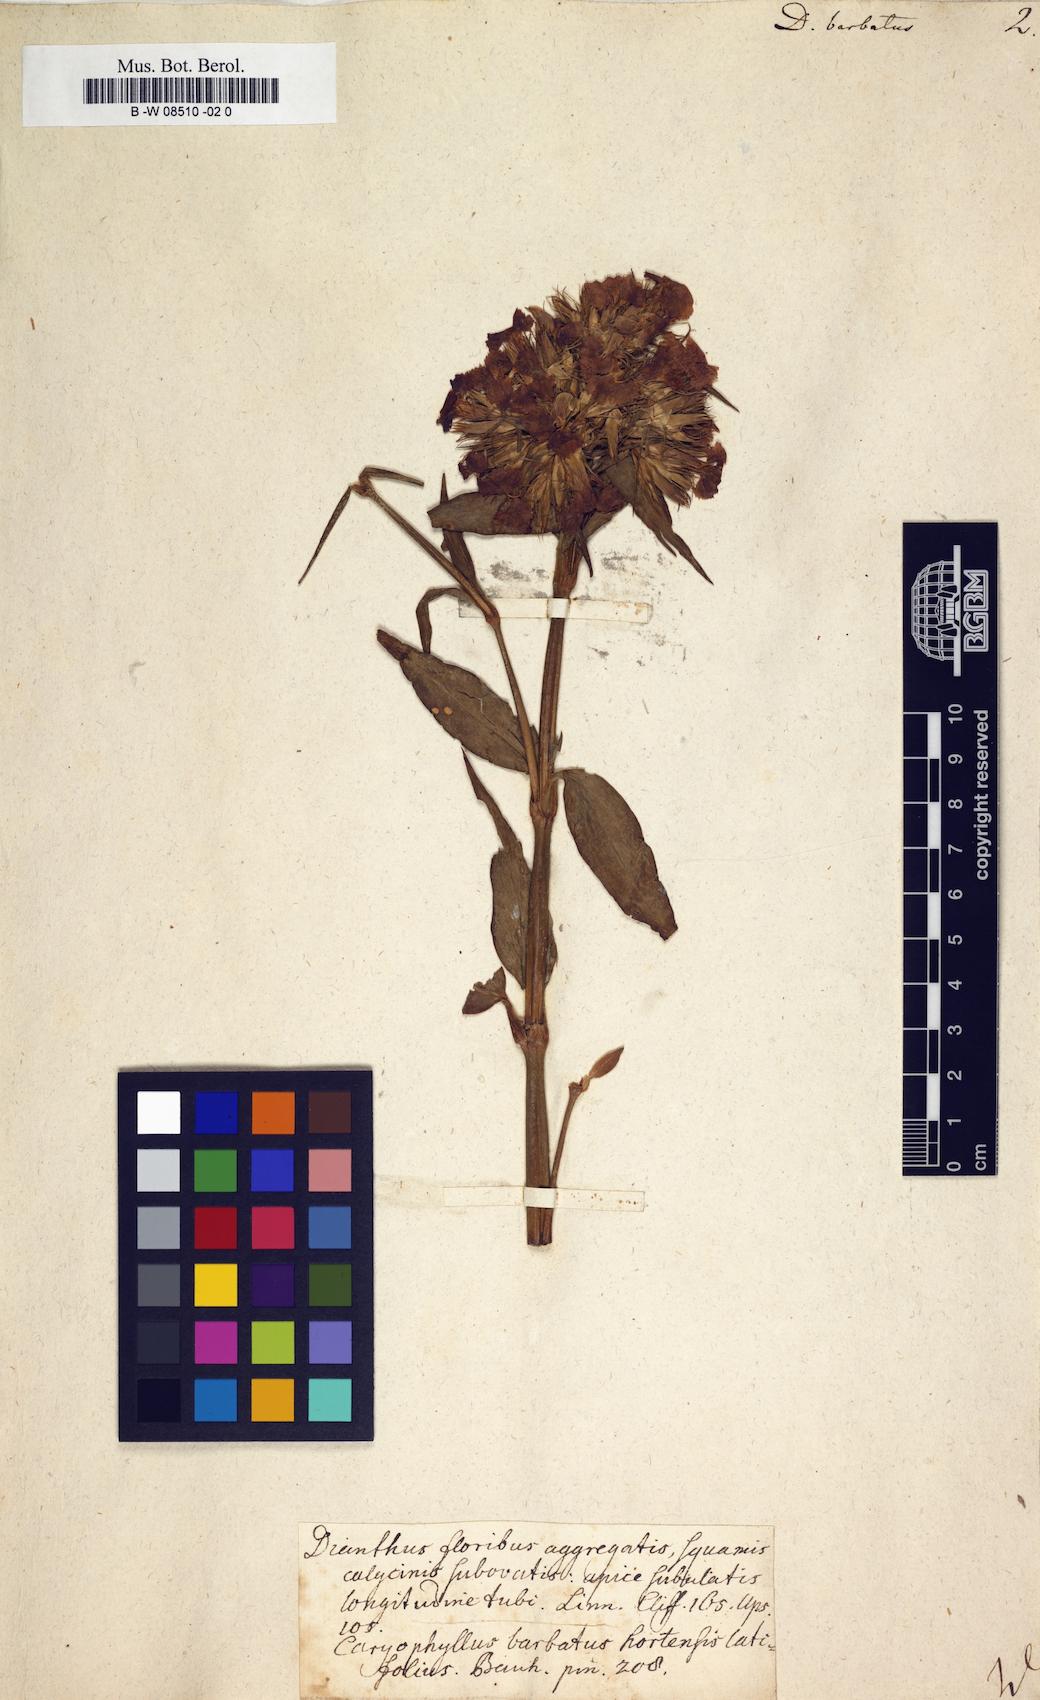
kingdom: Plantae
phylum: Tracheophyta
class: Magnoliopsida
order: Caryophyllales
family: Caryophyllaceae
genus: Dianthus
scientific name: Dianthus barbatus
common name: Sweet-william
